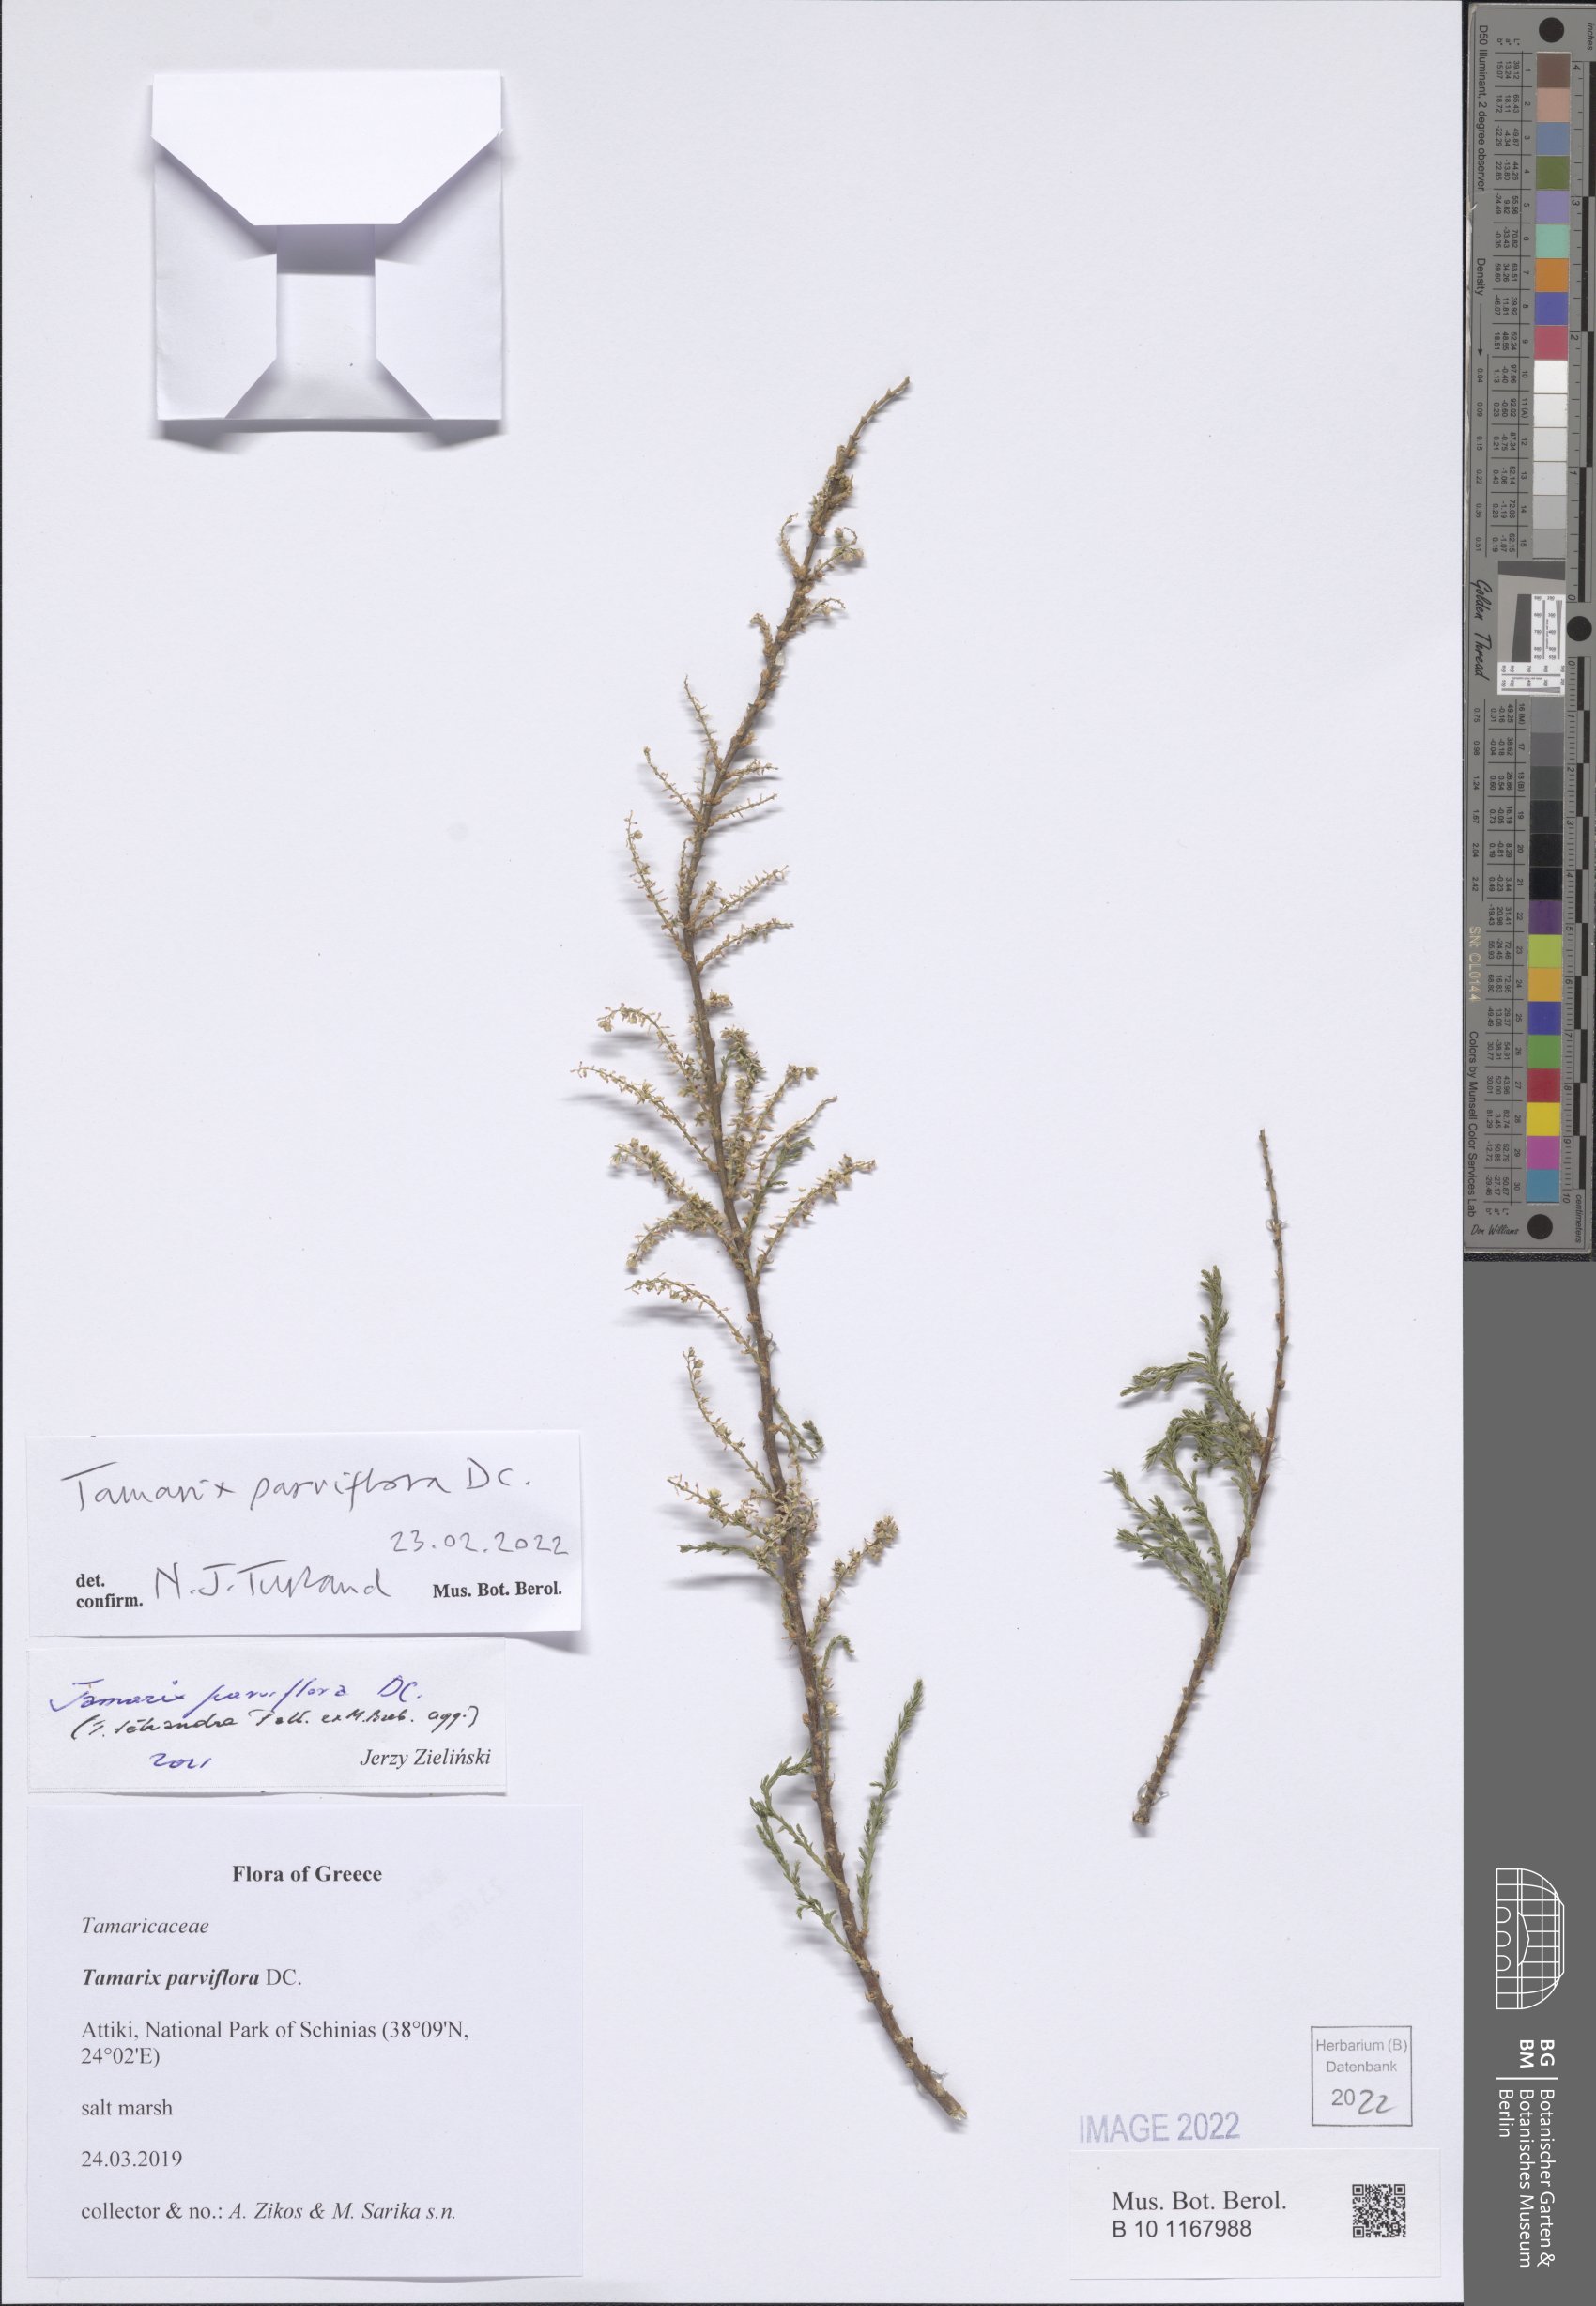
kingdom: Plantae
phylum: Tracheophyta
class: Magnoliopsida
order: Caryophyllales
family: Tamaricaceae
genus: Tamarix
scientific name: Tamarix parviflora
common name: Smallflower tamarisk
